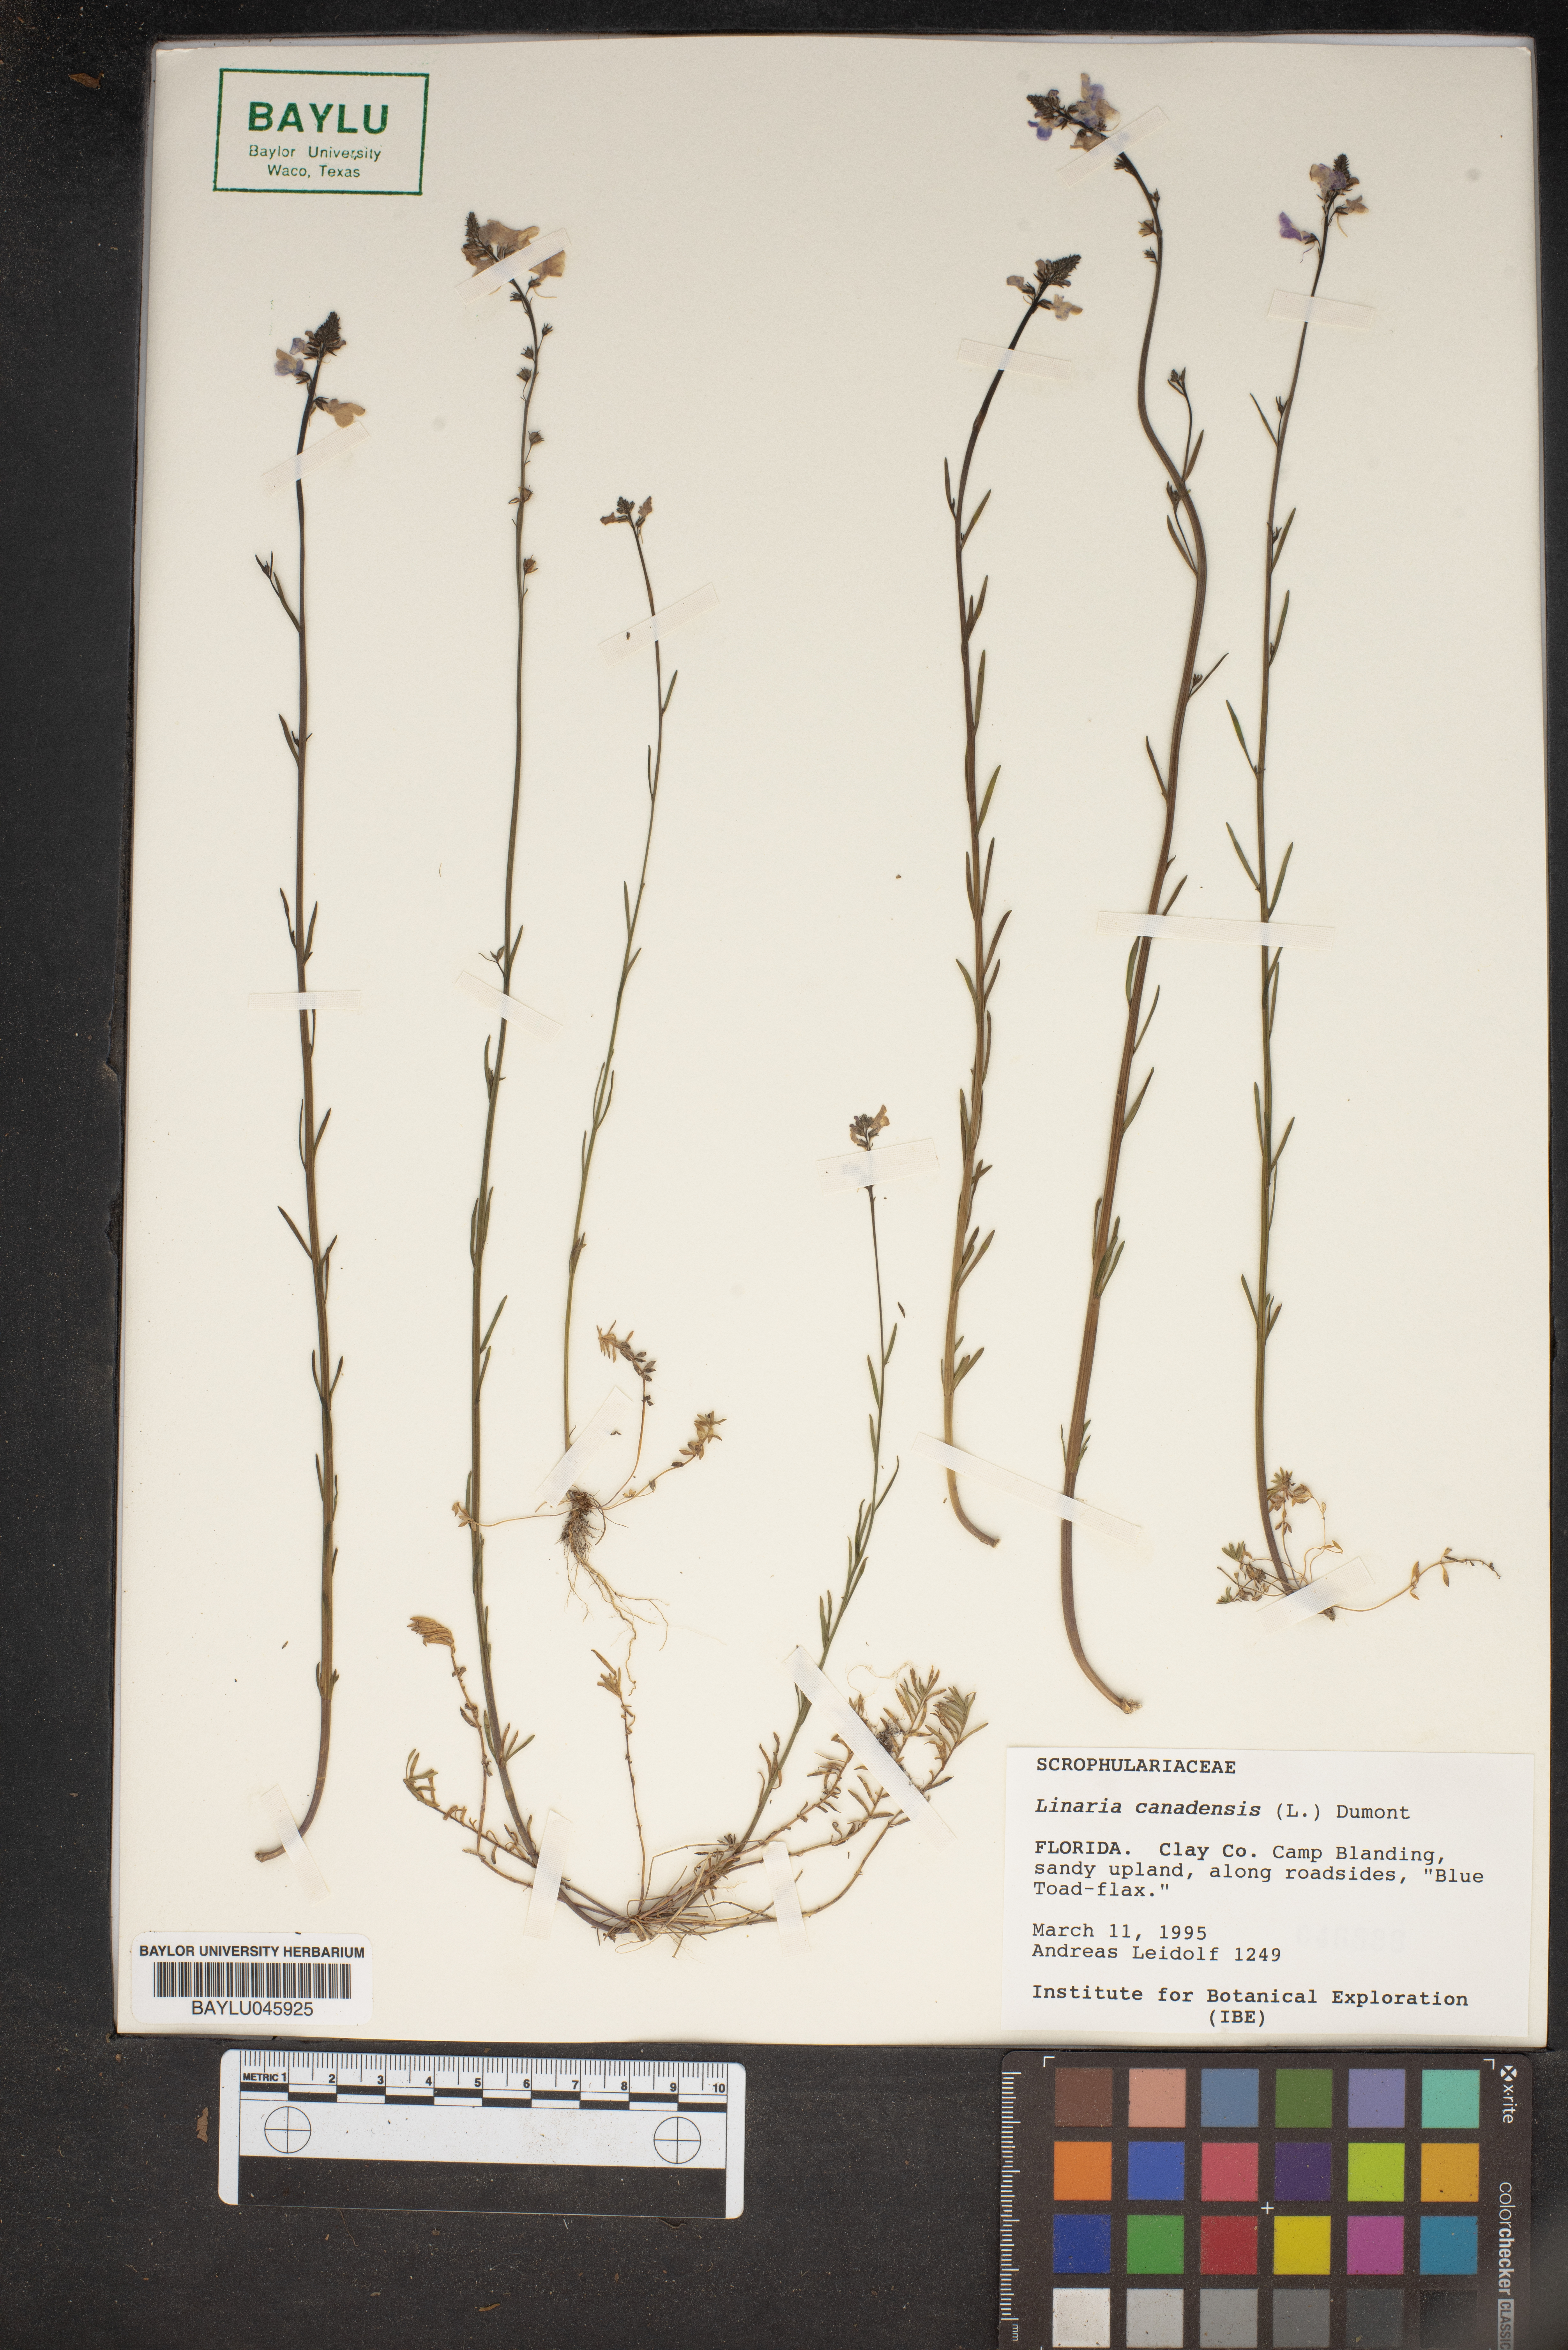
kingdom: Plantae
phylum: Tracheophyta
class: Magnoliopsida
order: Lamiales
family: Plantaginaceae
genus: Nuttallanthus
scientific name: Nuttallanthus canadensis
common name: Blue toadflax
